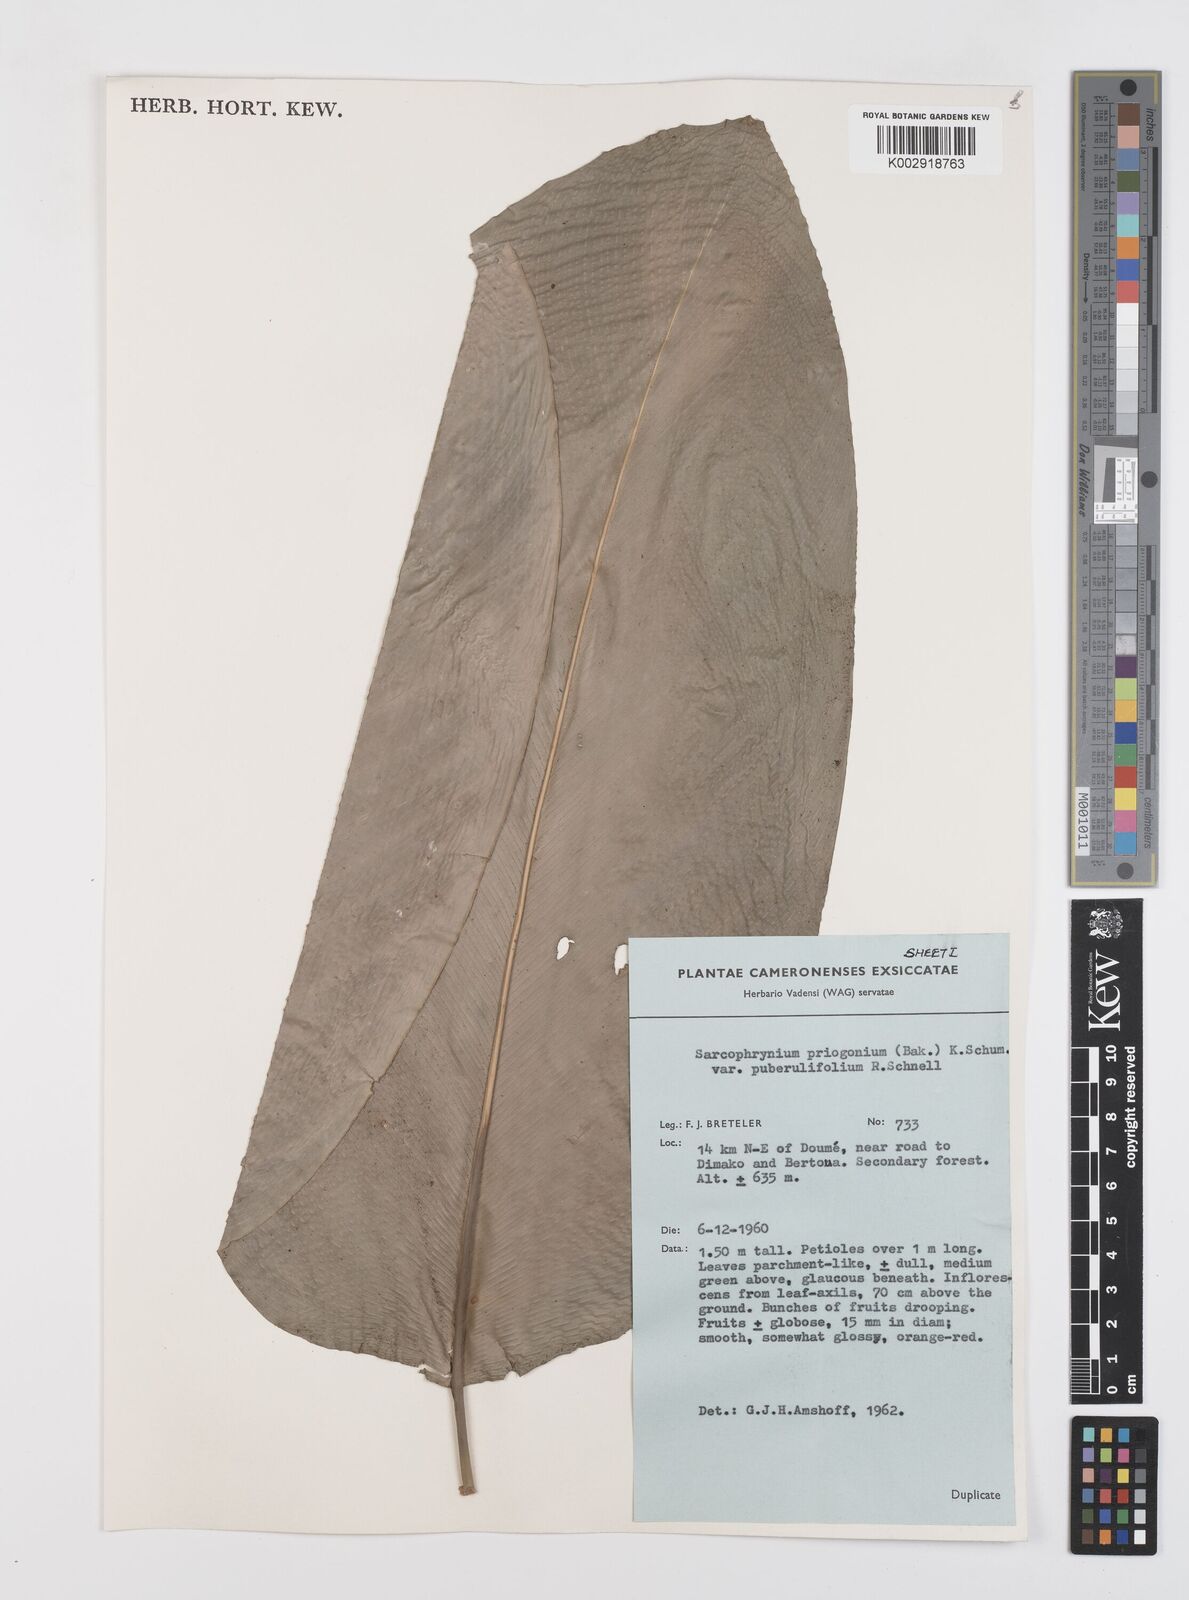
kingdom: Plantae
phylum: Tracheophyta
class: Liliopsida
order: Zingiberales
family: Marantaceae
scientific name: Marantaceae
